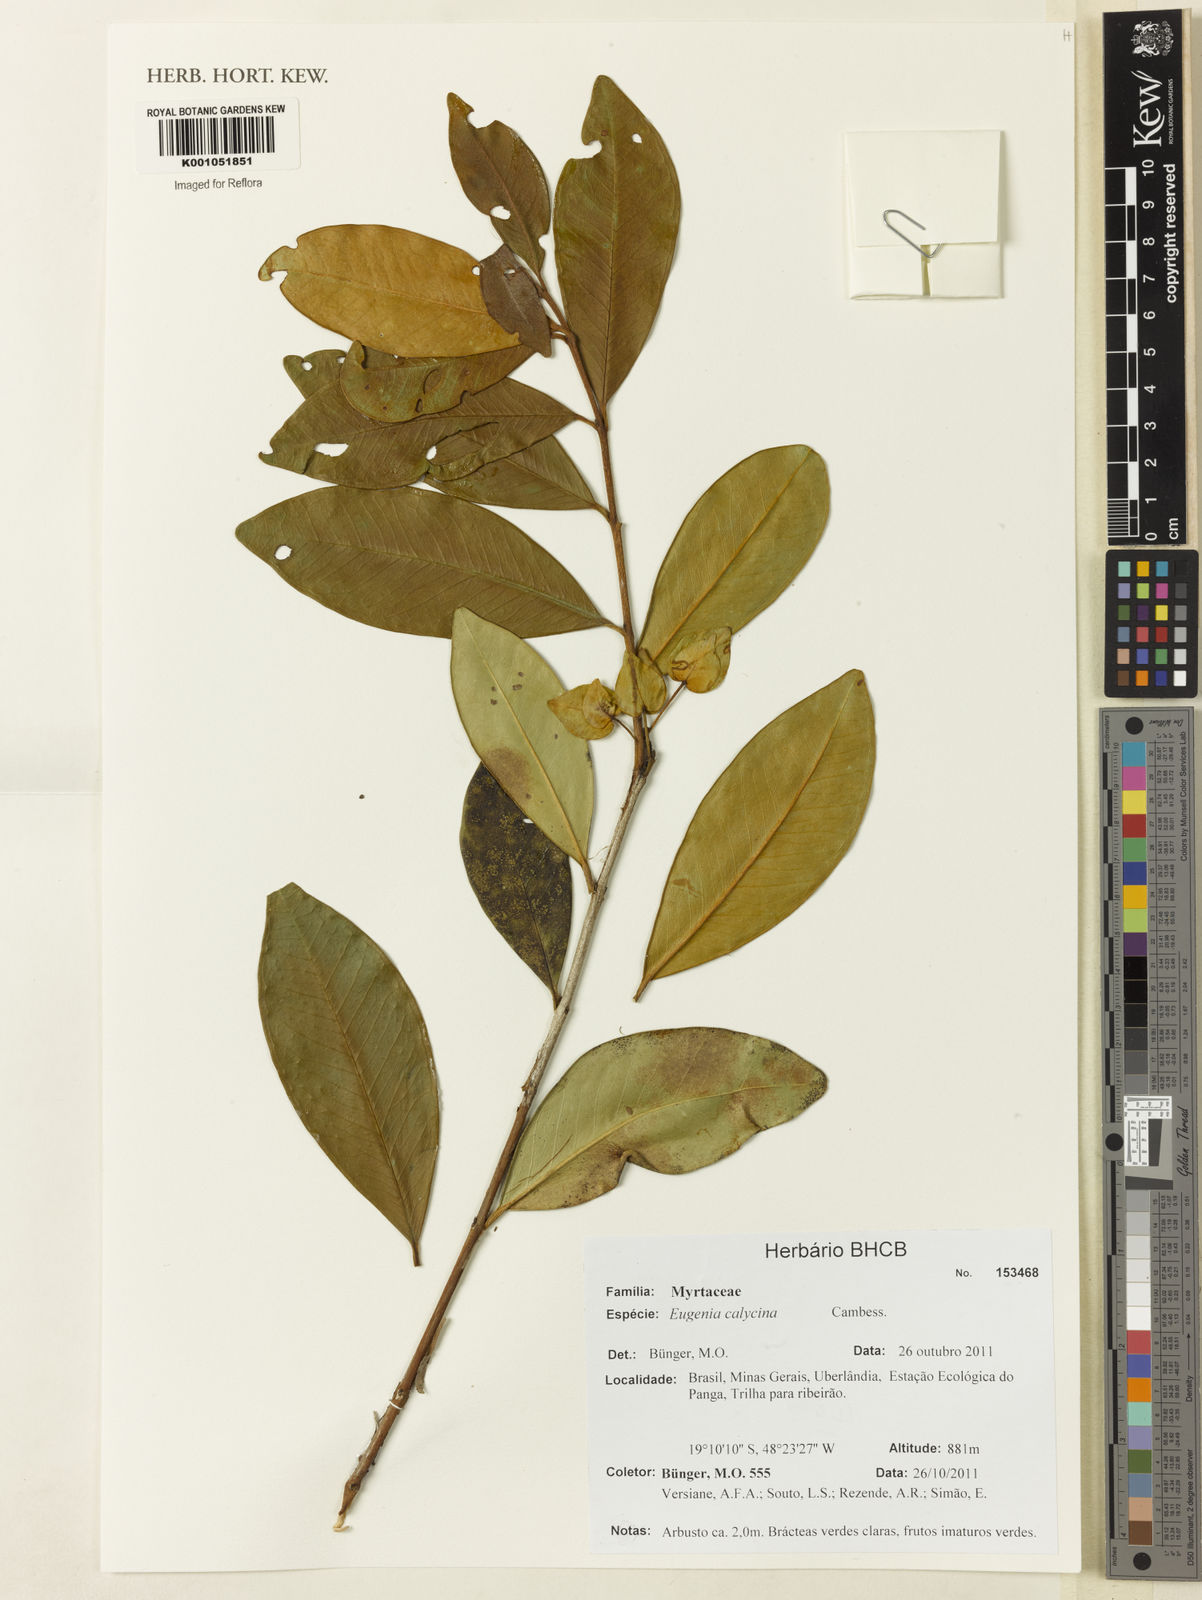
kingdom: Plantae
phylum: Tracheophyta
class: Magnoliopsida
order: Myrtales
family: Myrtaceae
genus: Eugenia
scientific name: Eugenia calycina
